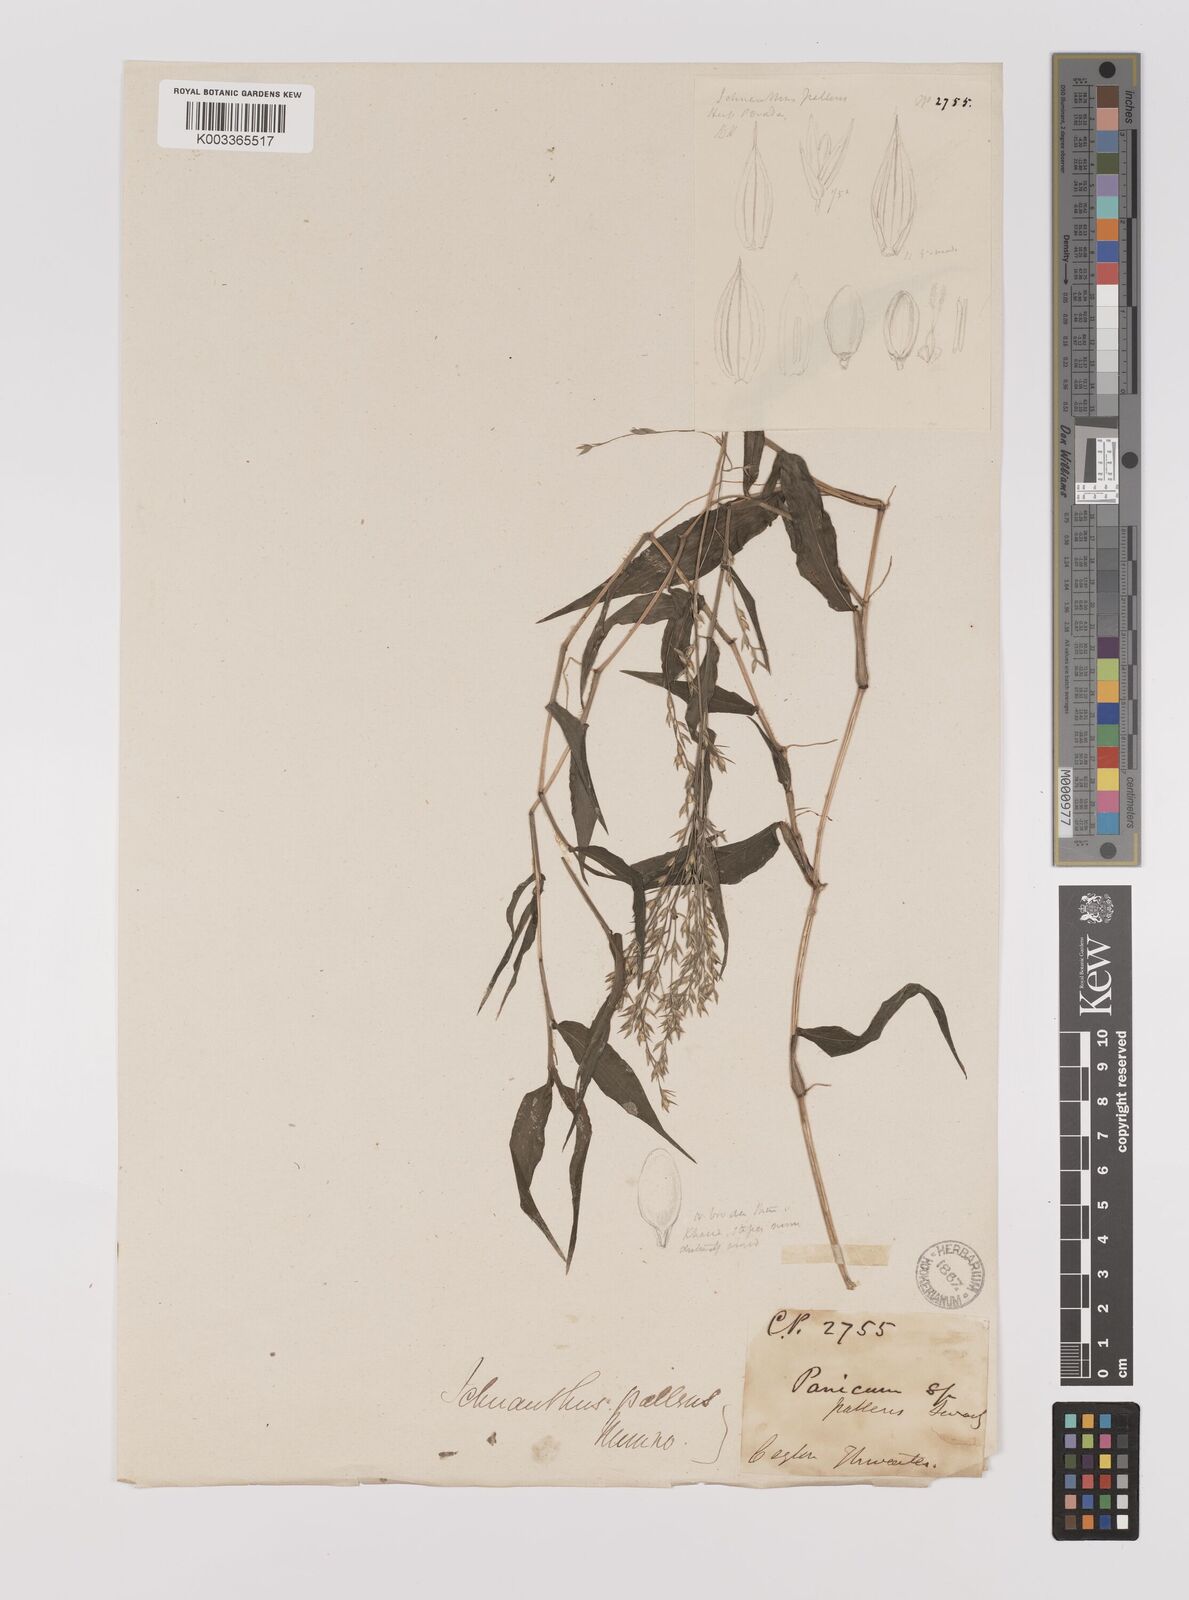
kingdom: Plantae
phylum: Tracheophyta
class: Liliopsida
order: Poales
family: Poaceae
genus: Ichnanthus
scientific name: Ichnanthus pallens
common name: Water grass
